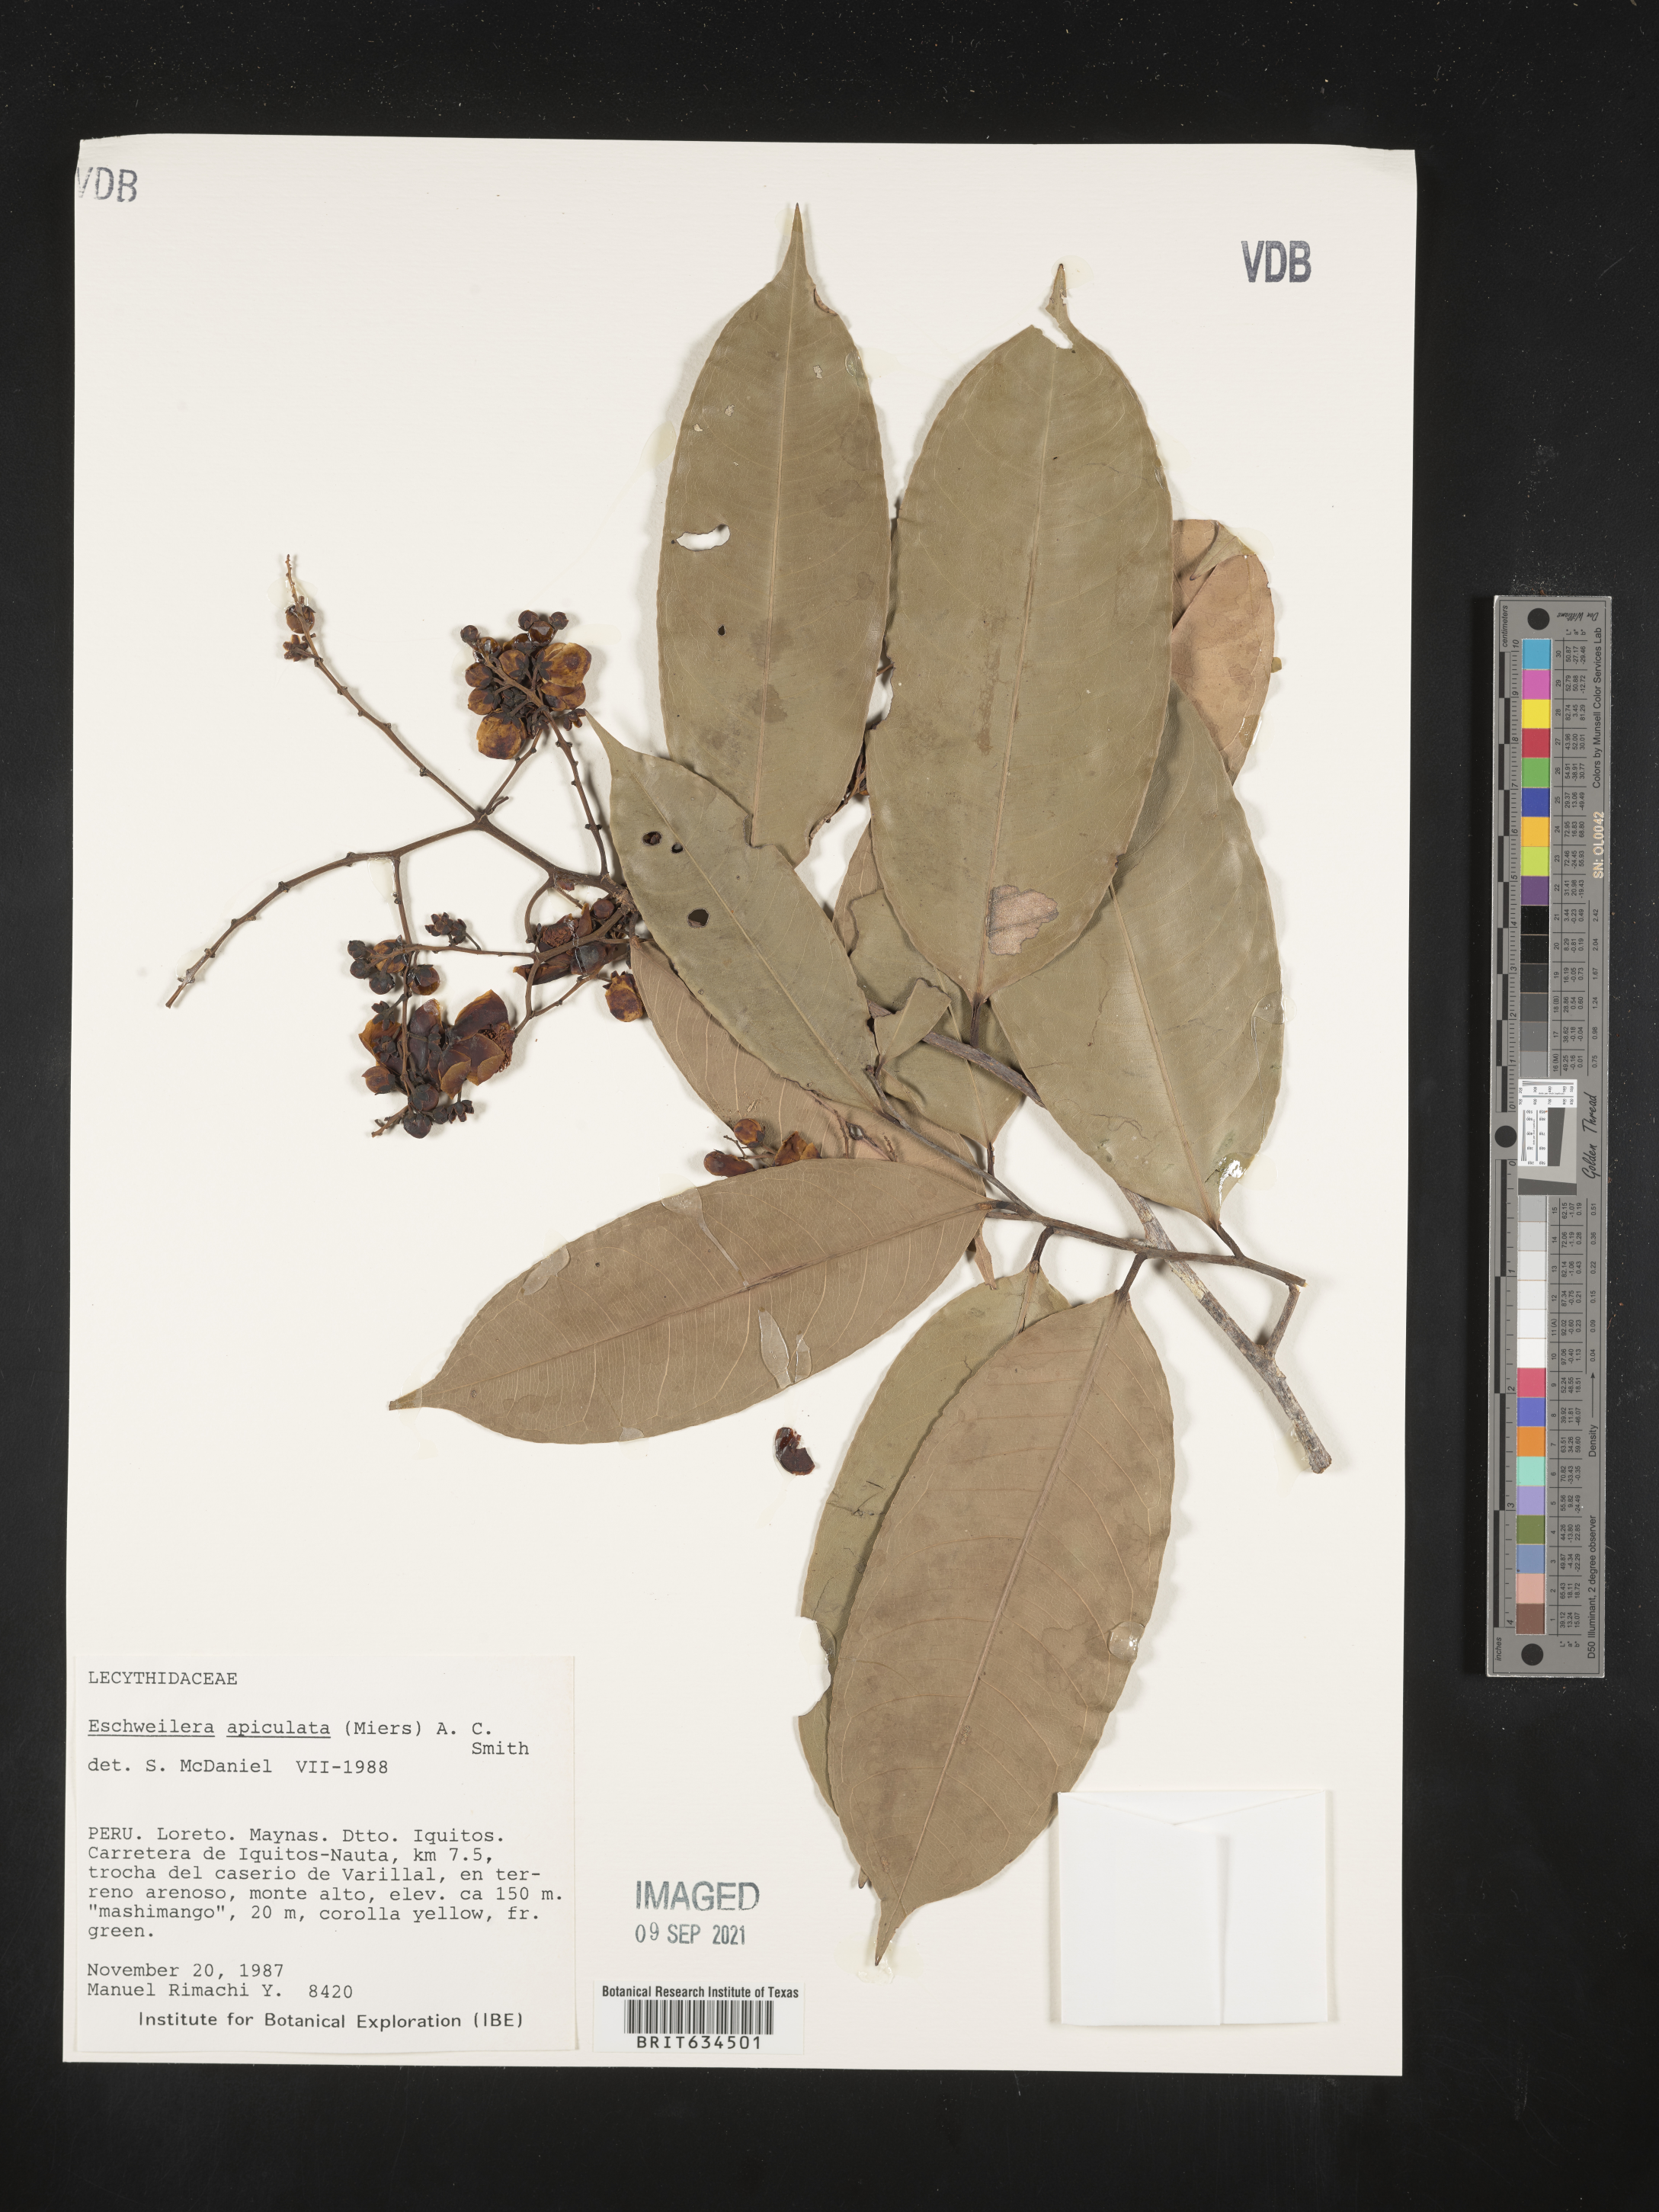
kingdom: Plantae
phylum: Tracheophyta
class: Magnoliopsida
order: Ericales
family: Lecythidaceae
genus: Eschweilera
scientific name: Eschweilera
